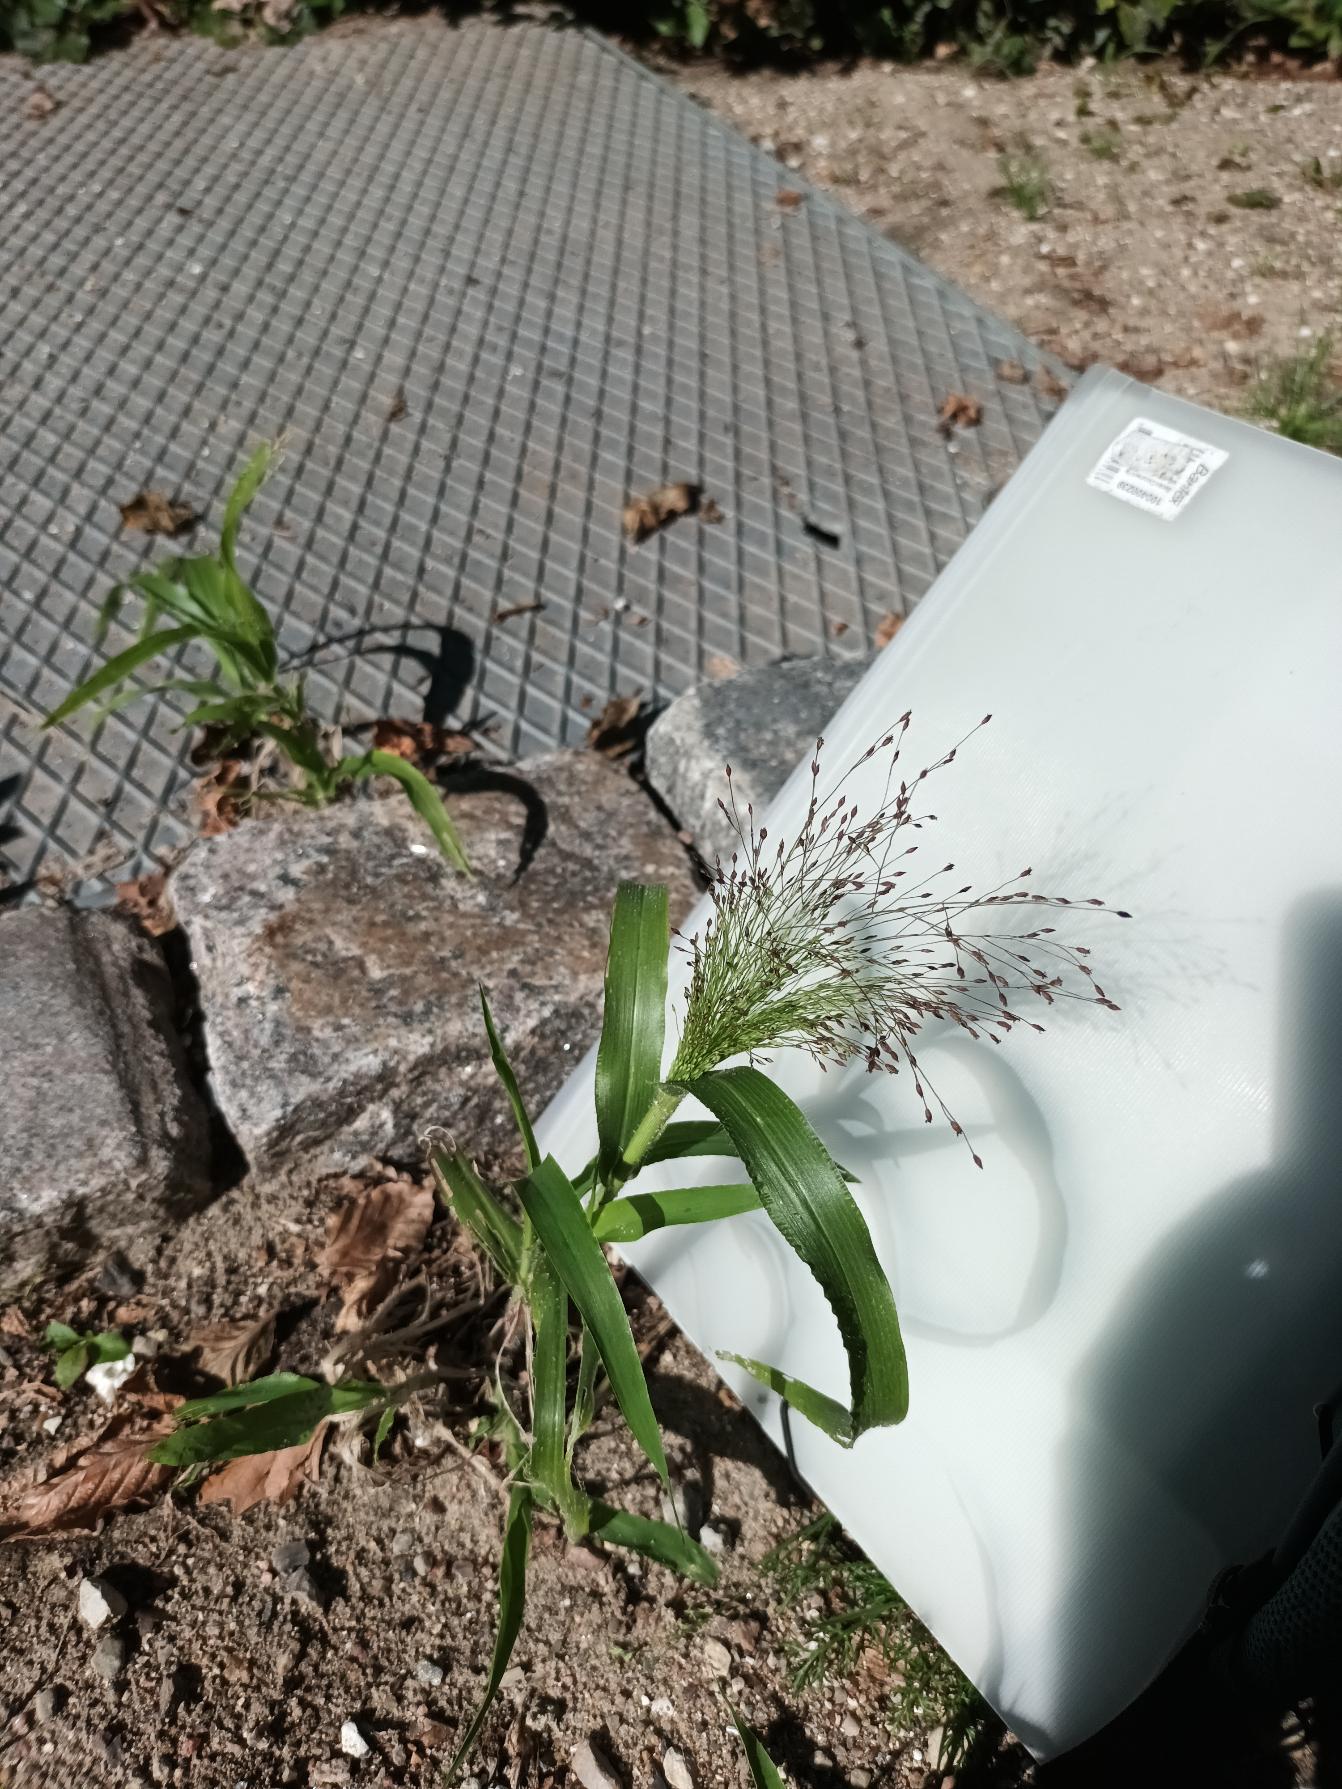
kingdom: Plantae
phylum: Tracheophyta
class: Liliopsida
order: Poales
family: Poaceae
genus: Panicum
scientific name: Panicum capillare
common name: Hårfin hirse
